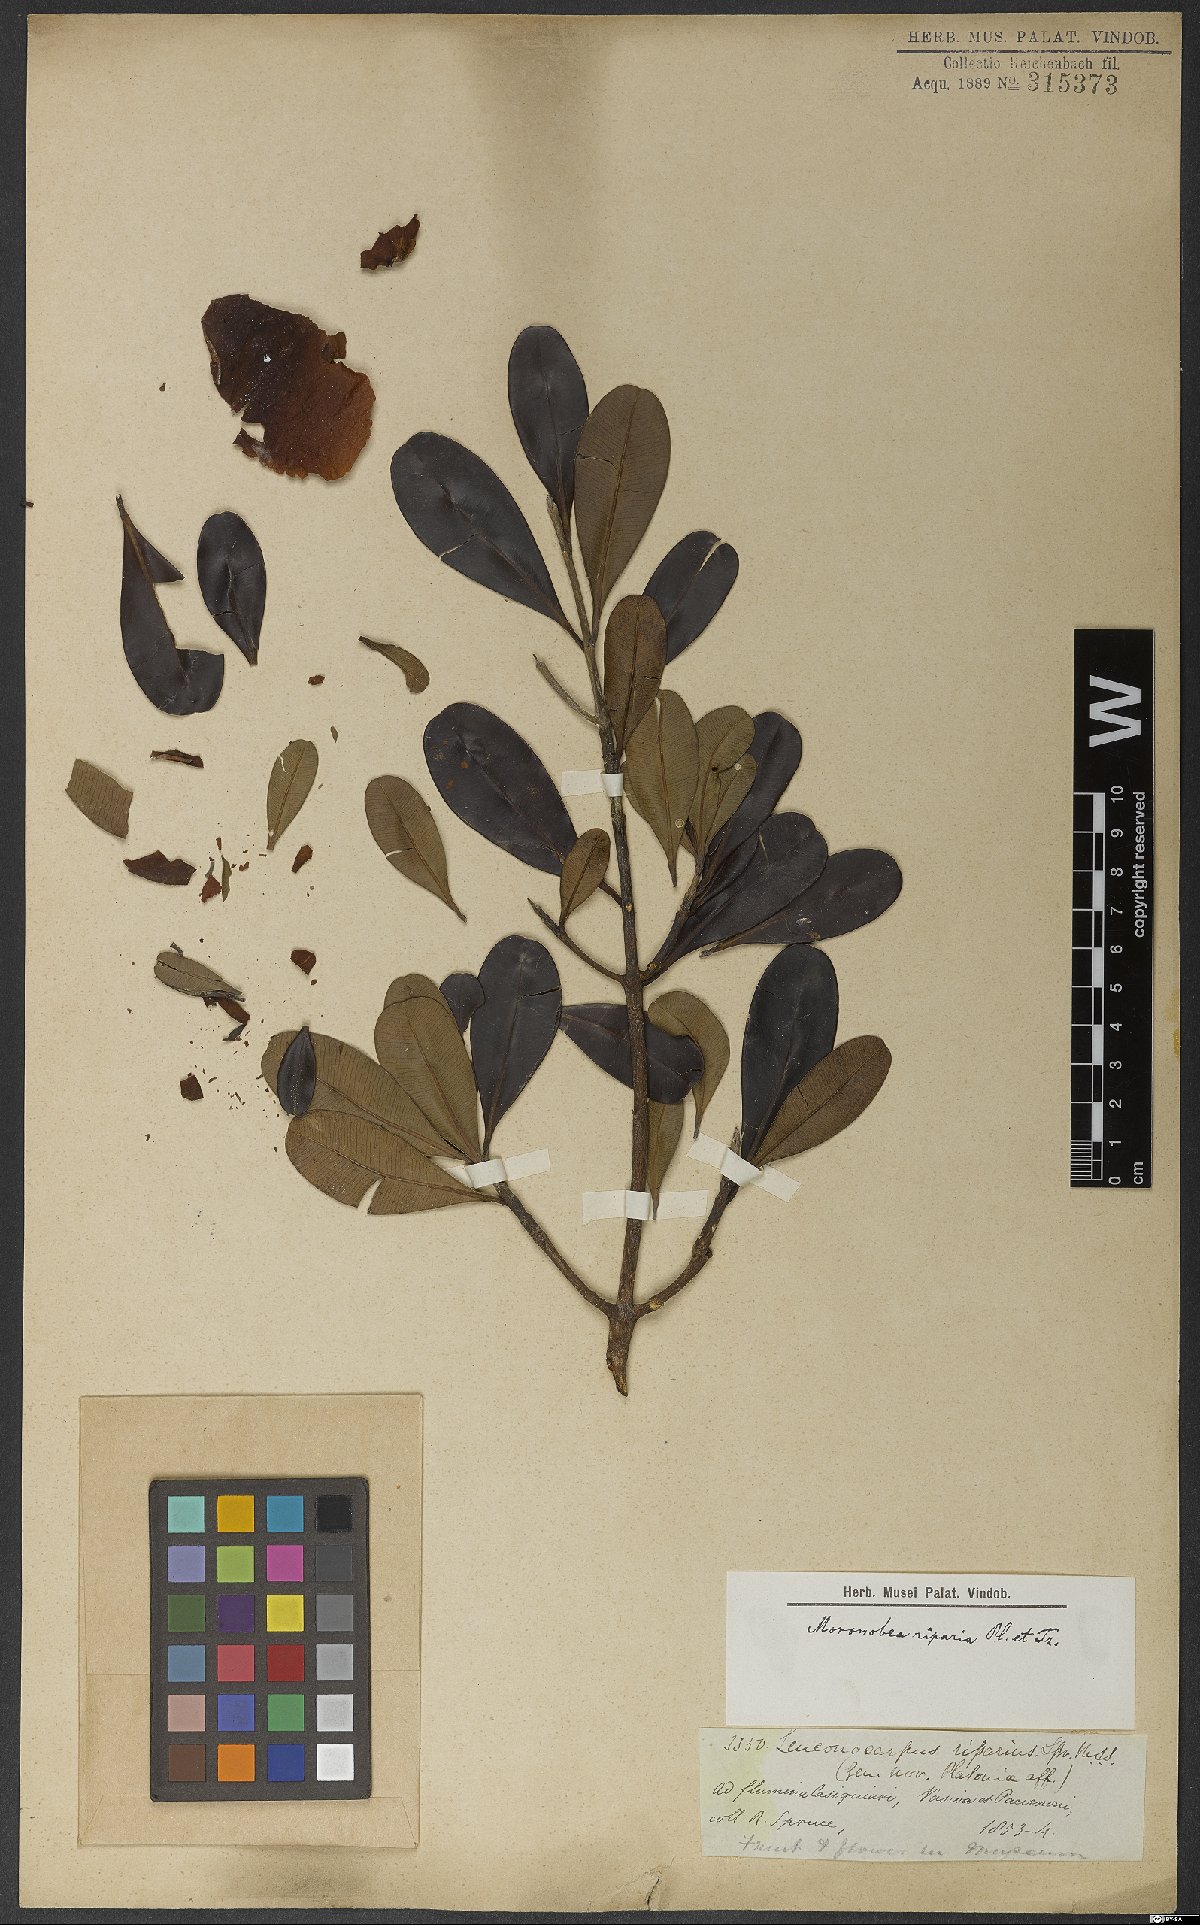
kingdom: Plantae
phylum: Tracheophyta
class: Magnoliopsida
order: Malpighiales
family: Clusiaceae
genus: Moronobea
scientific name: Moronobea riparia
